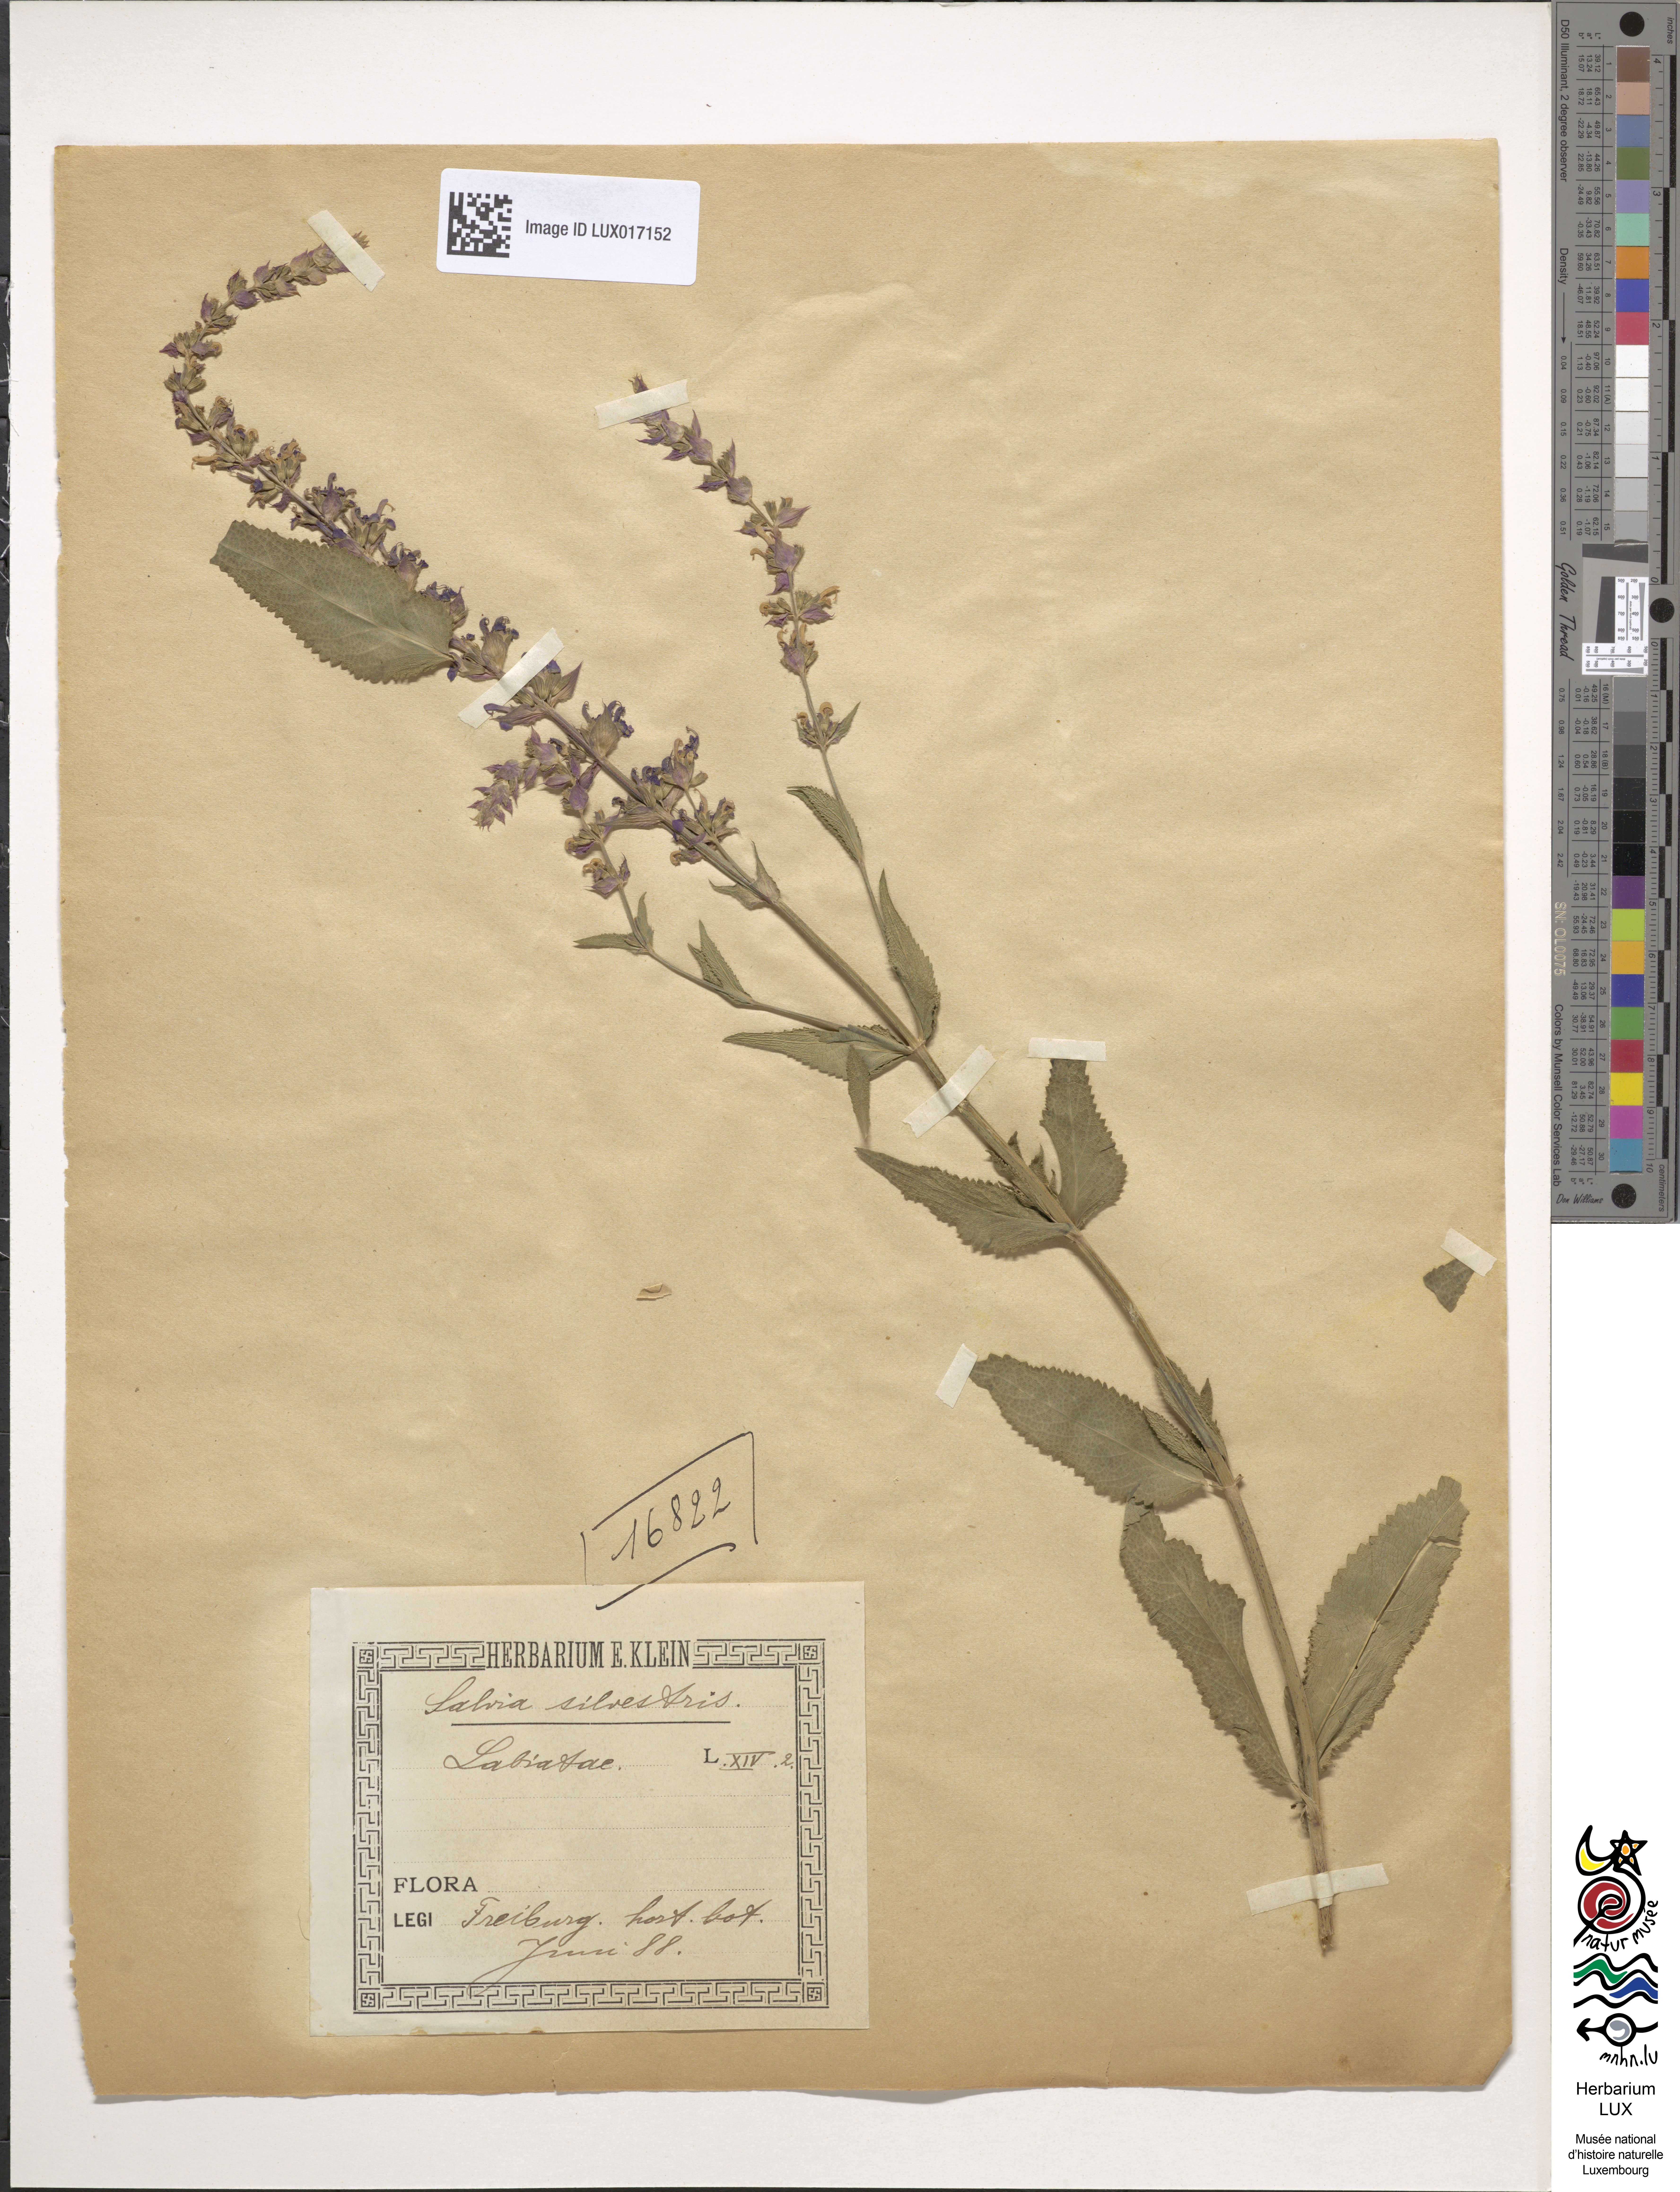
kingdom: Plantae
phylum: Tracheophyta
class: Magnoliopsida
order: Lamiales
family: Lamiaceae
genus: Salvia
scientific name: Salvia sylvestris
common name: Woodland sage
